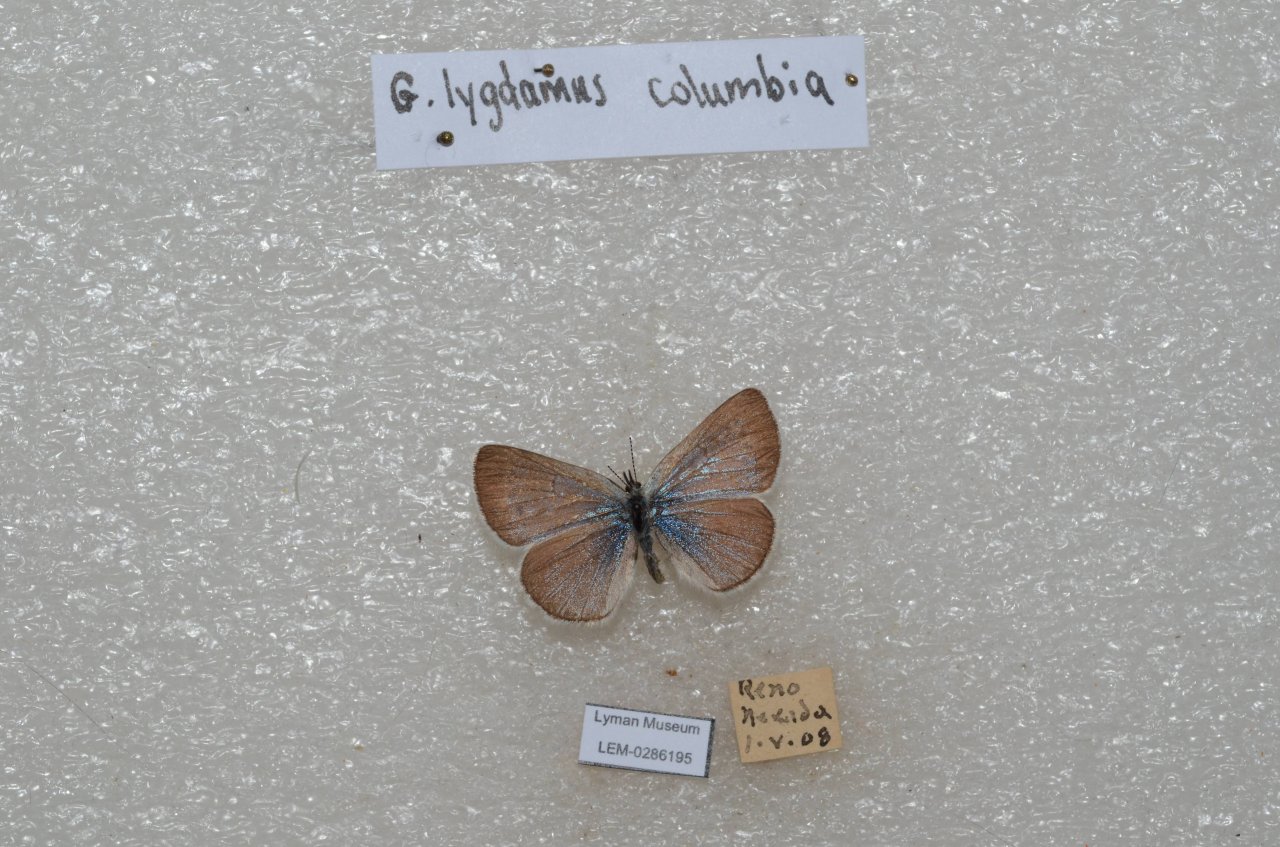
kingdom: Animalia
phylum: Arthropoda
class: Insecta
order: Lepidoptera
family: Lycaenidae
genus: Glaucopsyche
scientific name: Glaucopsyche lygdamus
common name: Silvery Blue
